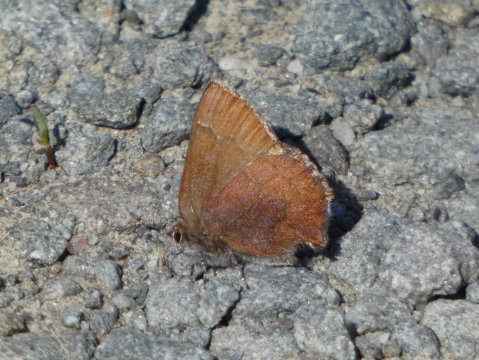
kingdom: Animalia
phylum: Arthropoda
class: Insecta
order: Lepidoptera
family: Lycaenidae
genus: Incisalia
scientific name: Incisalia irioides
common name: Brown Elfin
